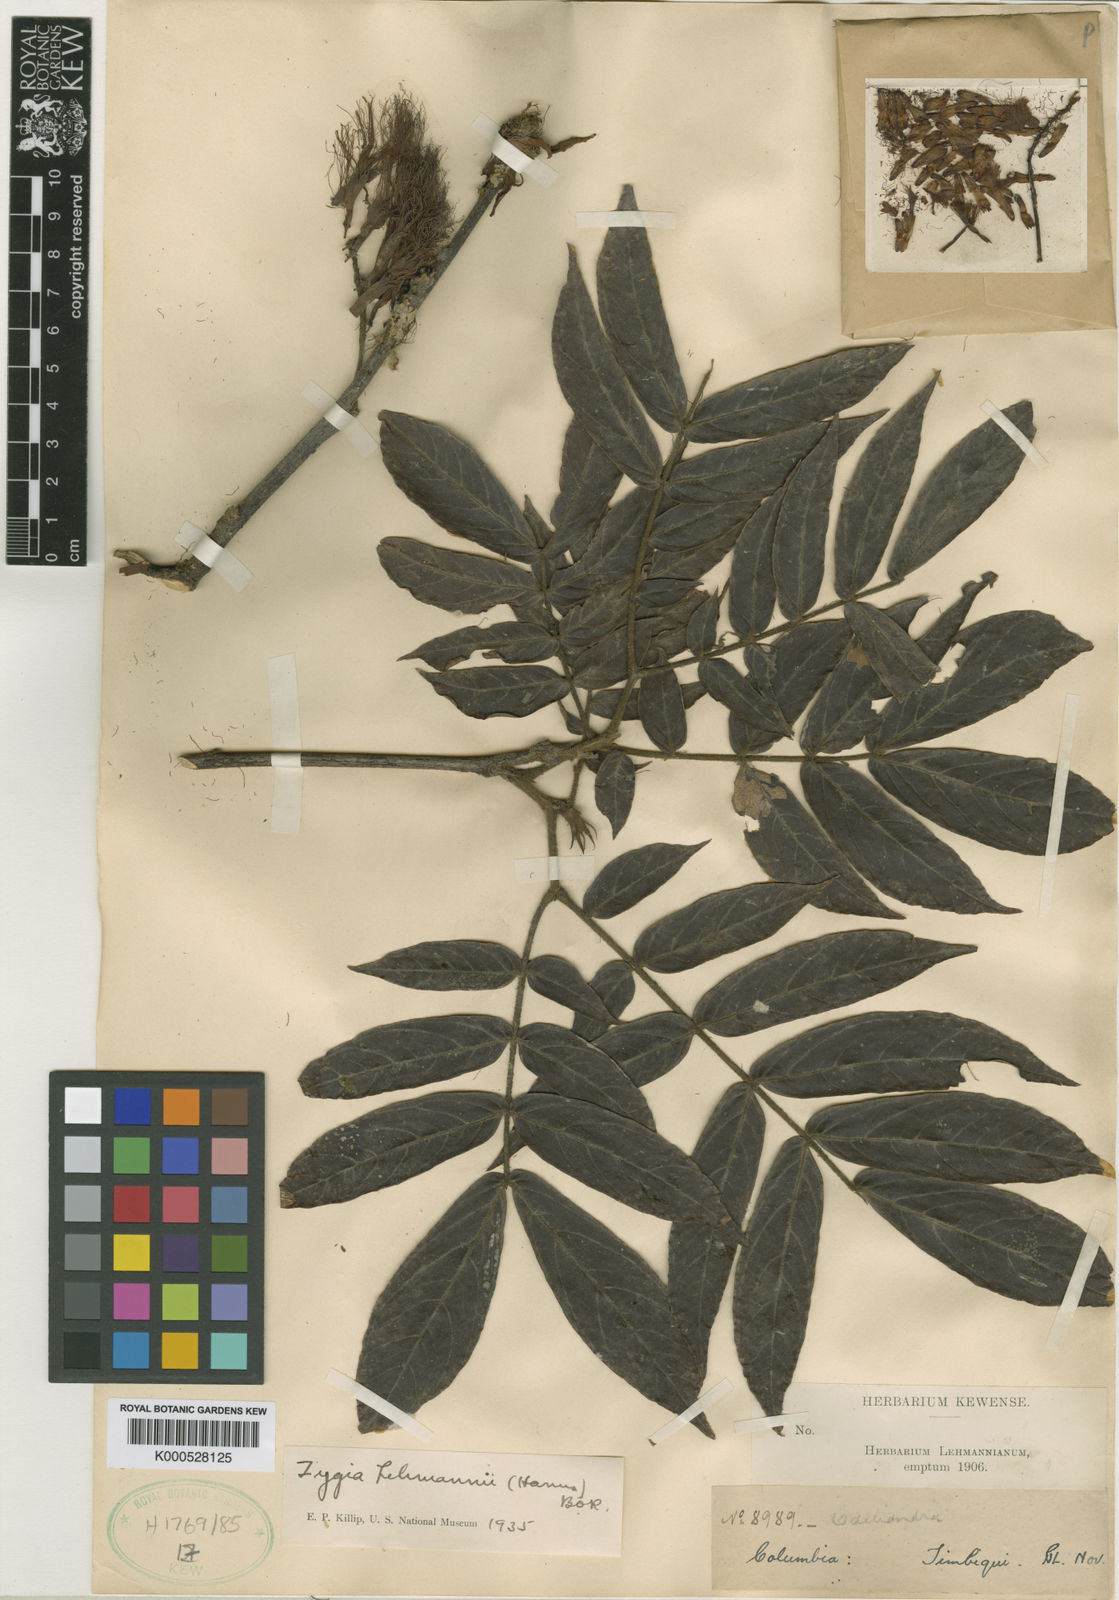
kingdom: Plantae
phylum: Tracheophyta
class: Magnoliopsida
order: Fabales
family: Fabaceae
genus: Zygia
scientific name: Zygia
